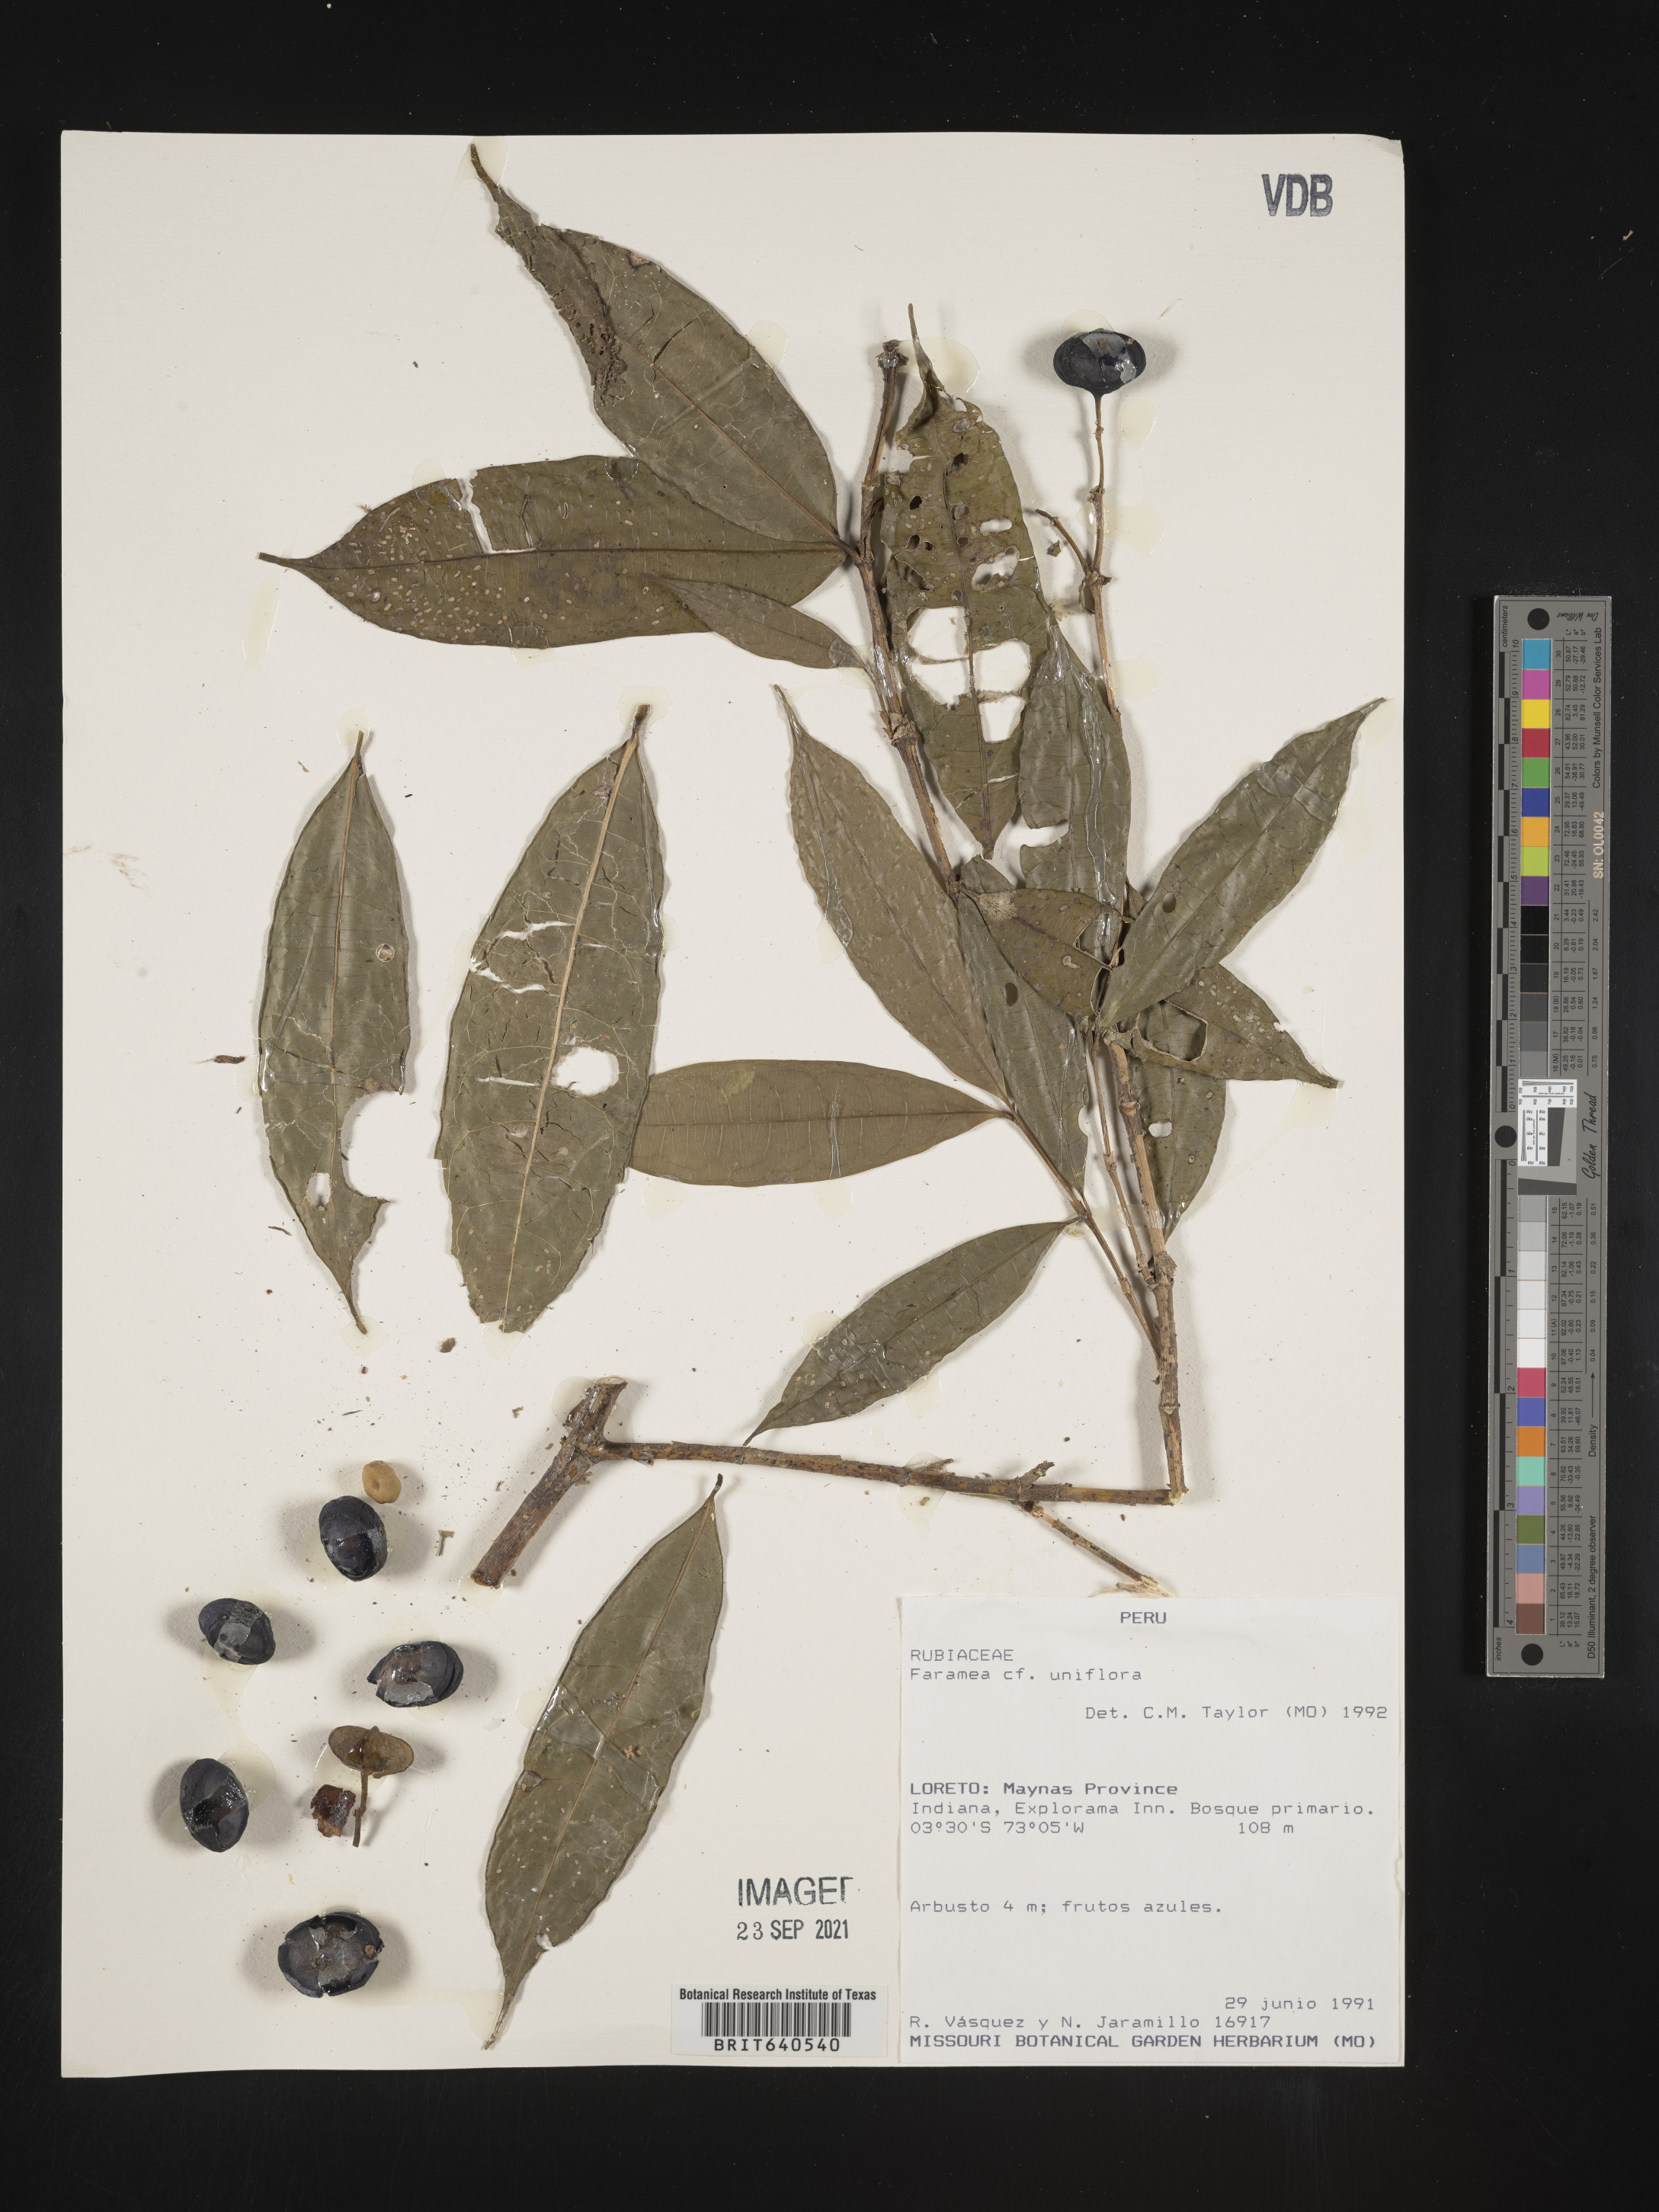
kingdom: Plantae
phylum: Tracheophyta
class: Magnoliopsida
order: Gentianales
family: Rubiaceae
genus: Faramea
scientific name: Faramea
